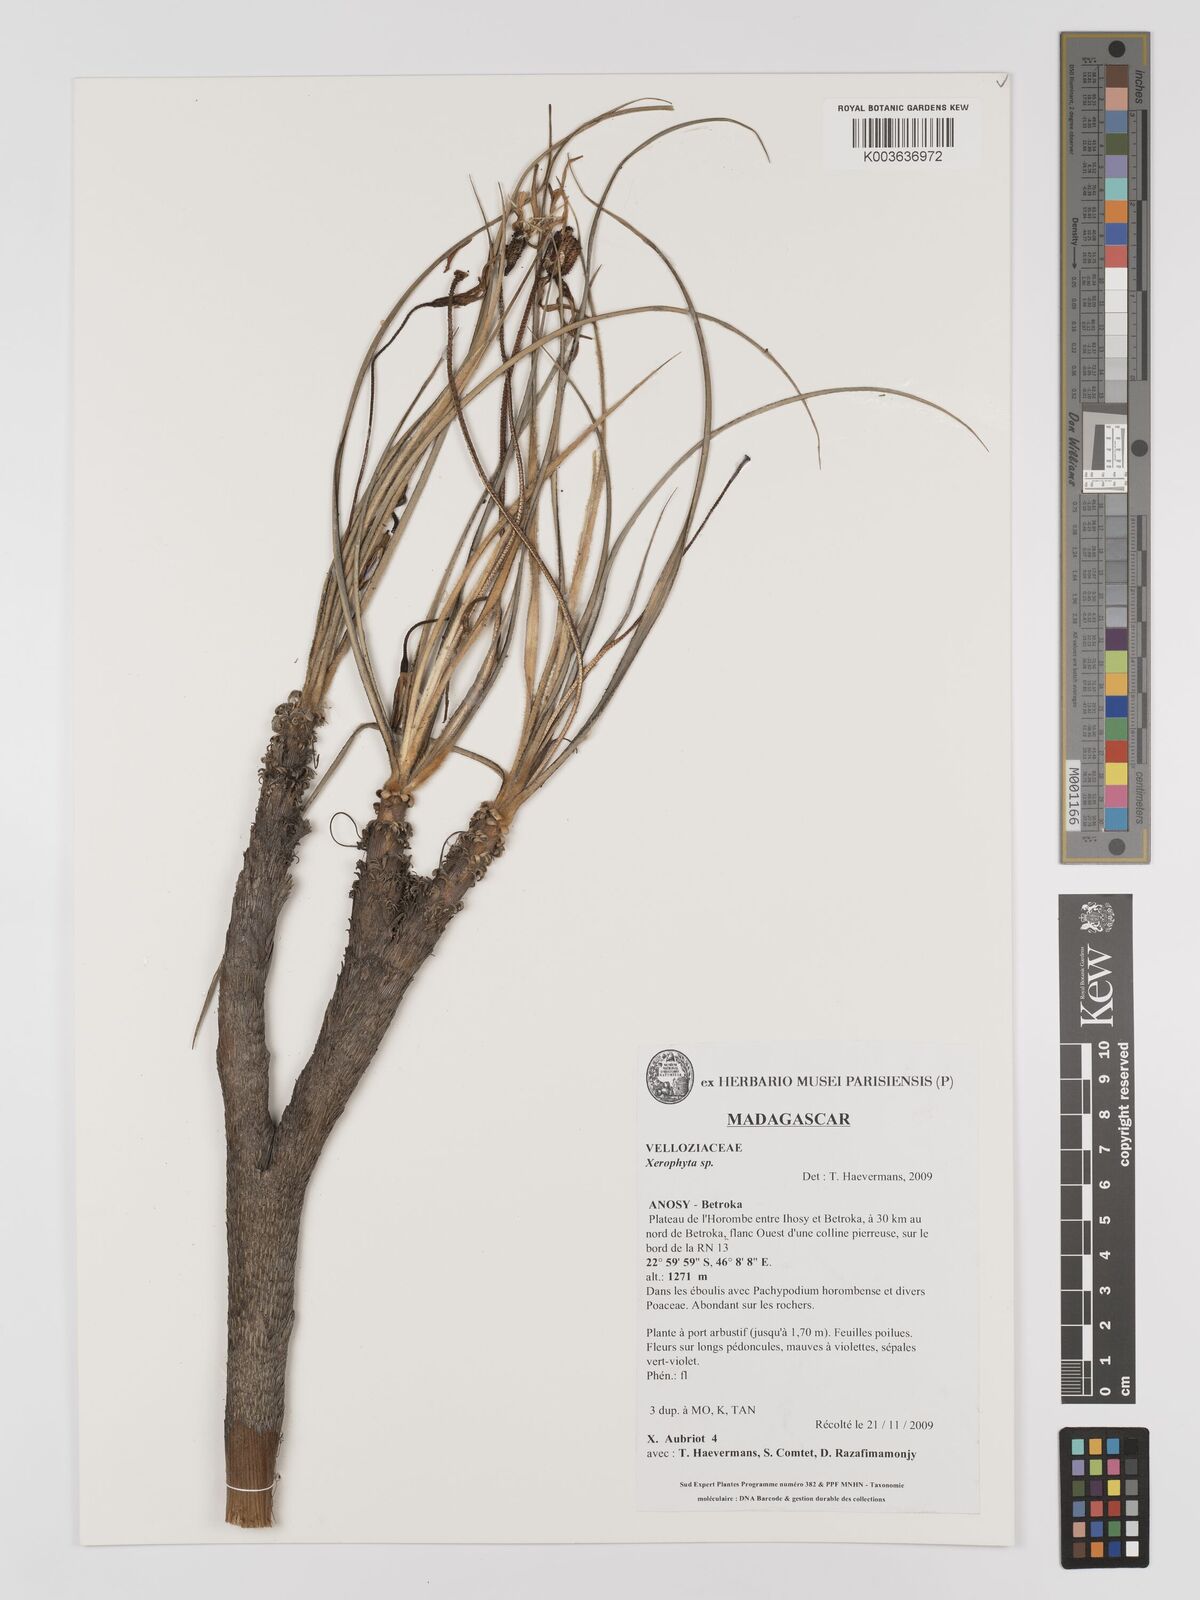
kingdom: Plantae
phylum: Tracheophyta
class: Liliopsida
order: Pandanales
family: Velloziaceae
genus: Xerophyta
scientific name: Xerophyta
